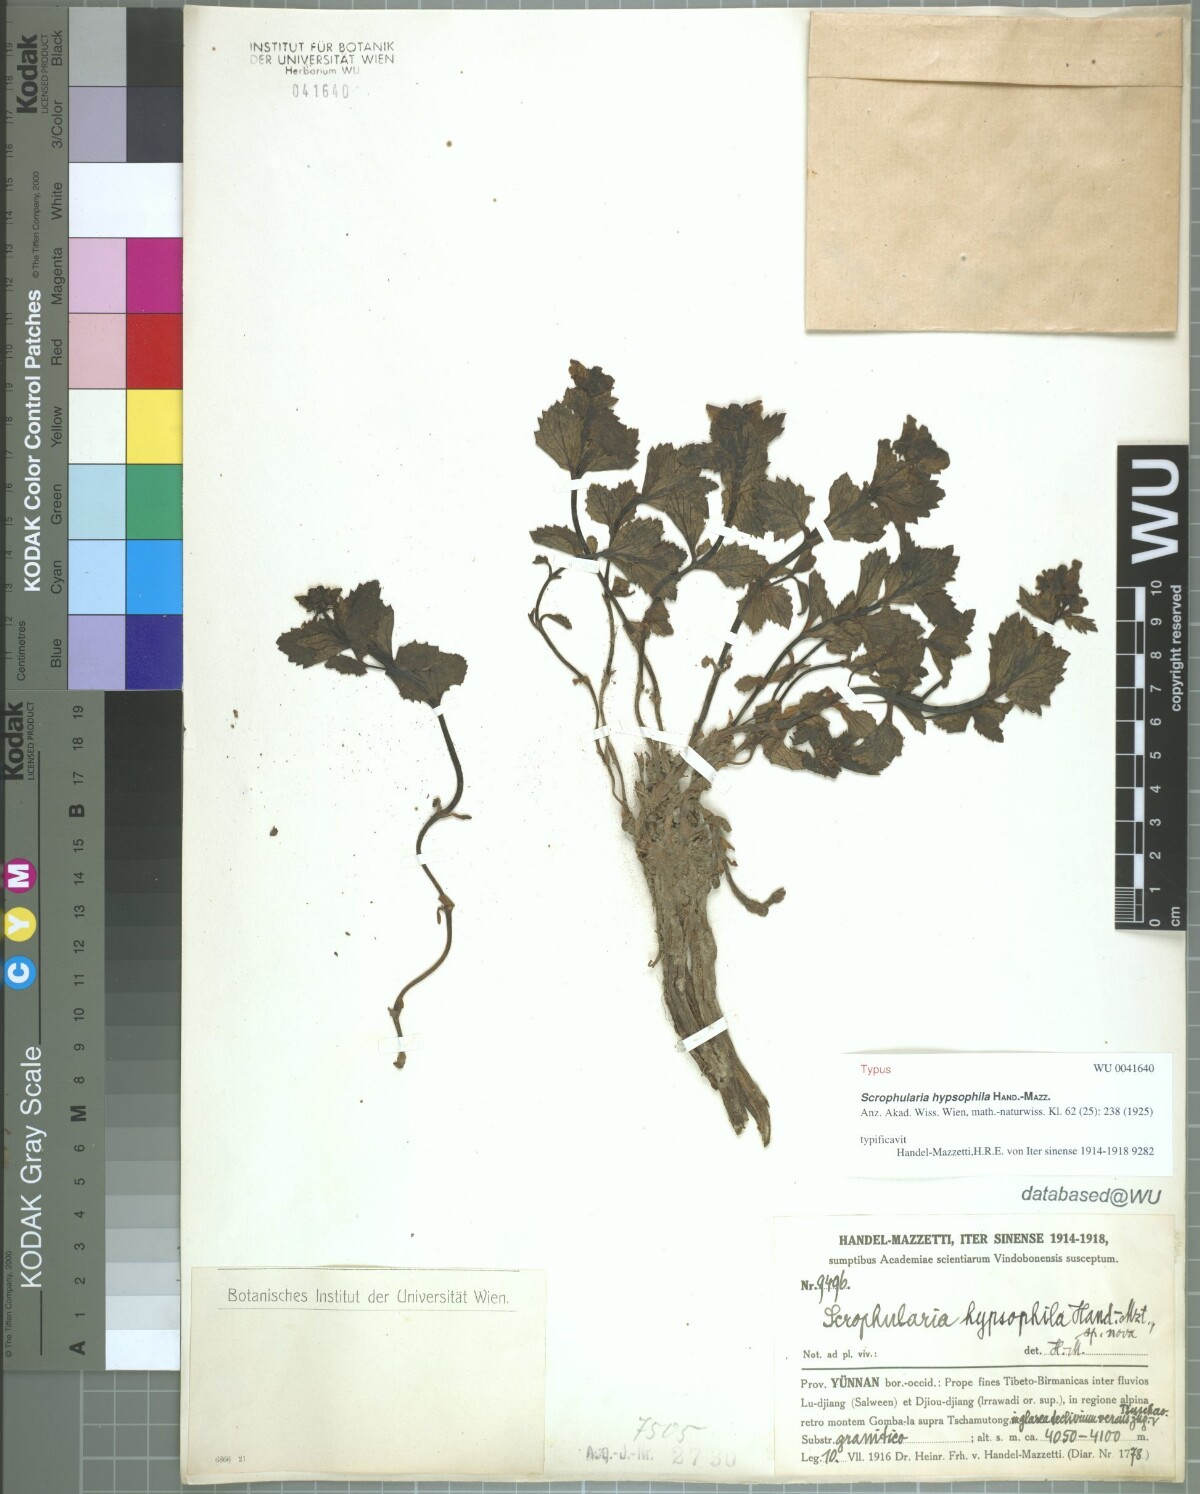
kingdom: Plantae
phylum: Tracheophyta
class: Magnoliopsida
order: Lamiales
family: Scrophulariaceae
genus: Scrophularia
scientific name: Scrophularia hypsophila
